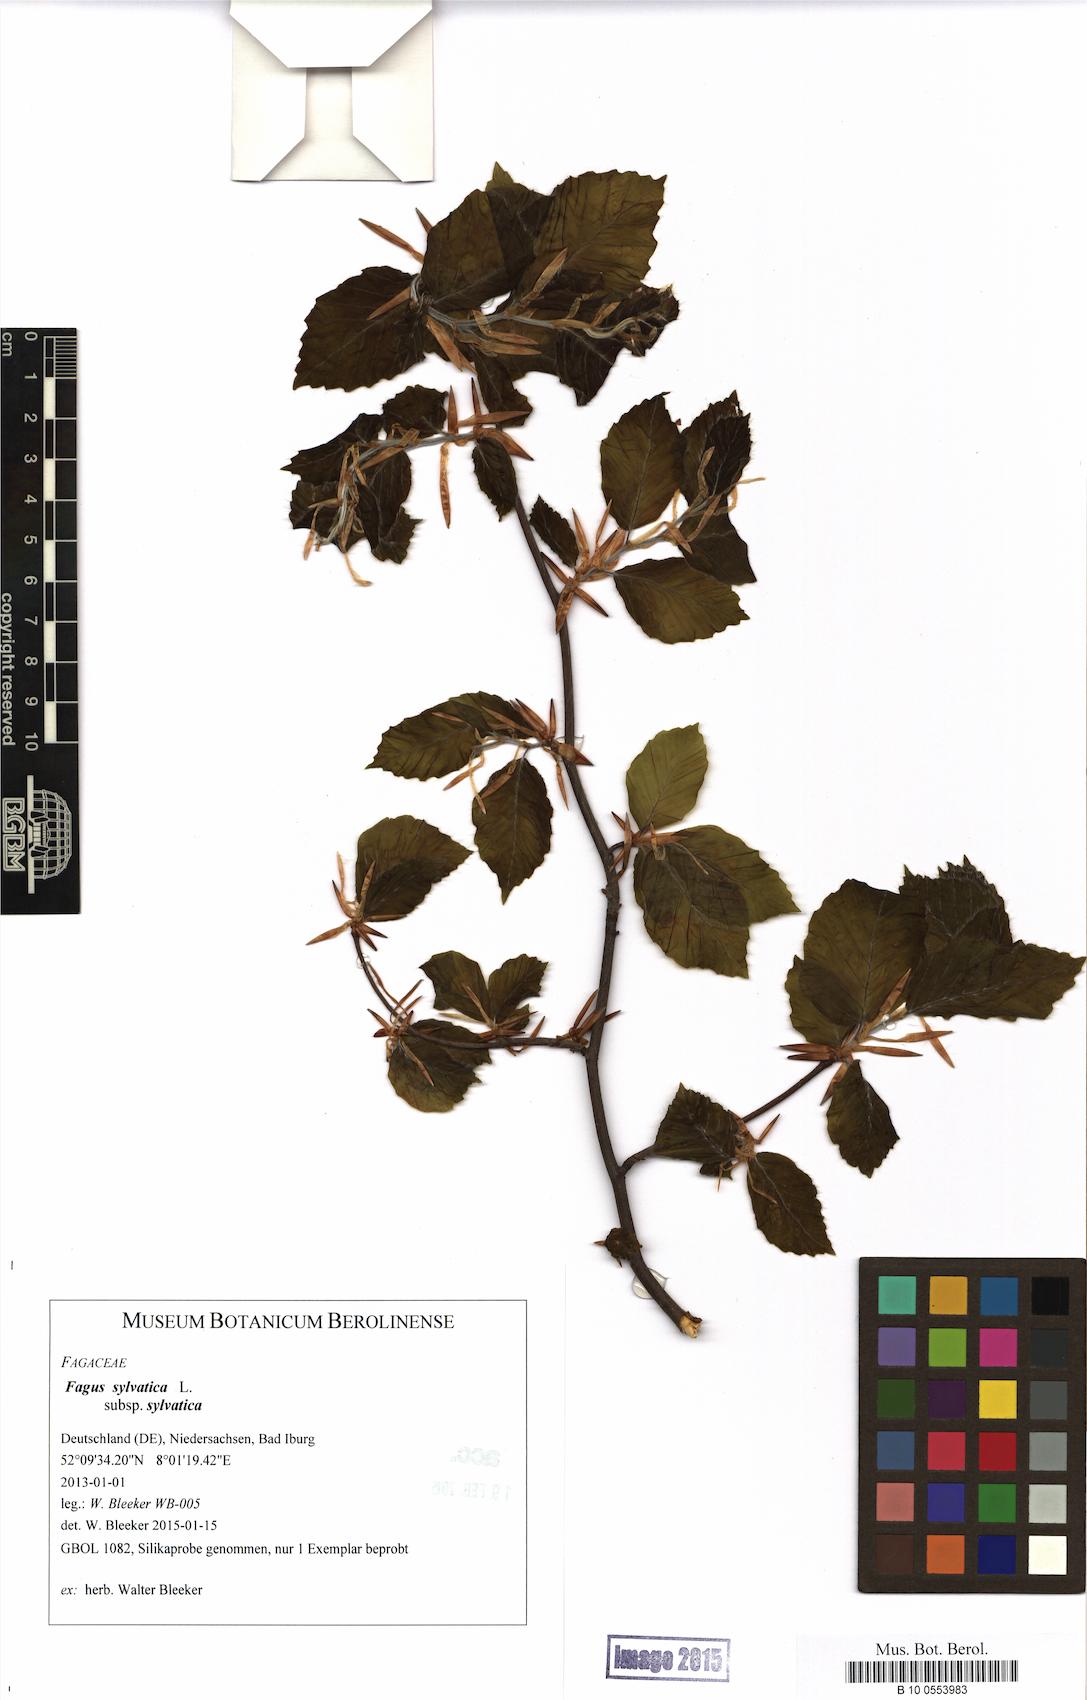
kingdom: Plantae
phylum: Tracheophyta
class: Magnoliopsida
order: Fagales
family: Fagaceae
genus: Fagus
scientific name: Fagus sylvatica
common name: Beech
